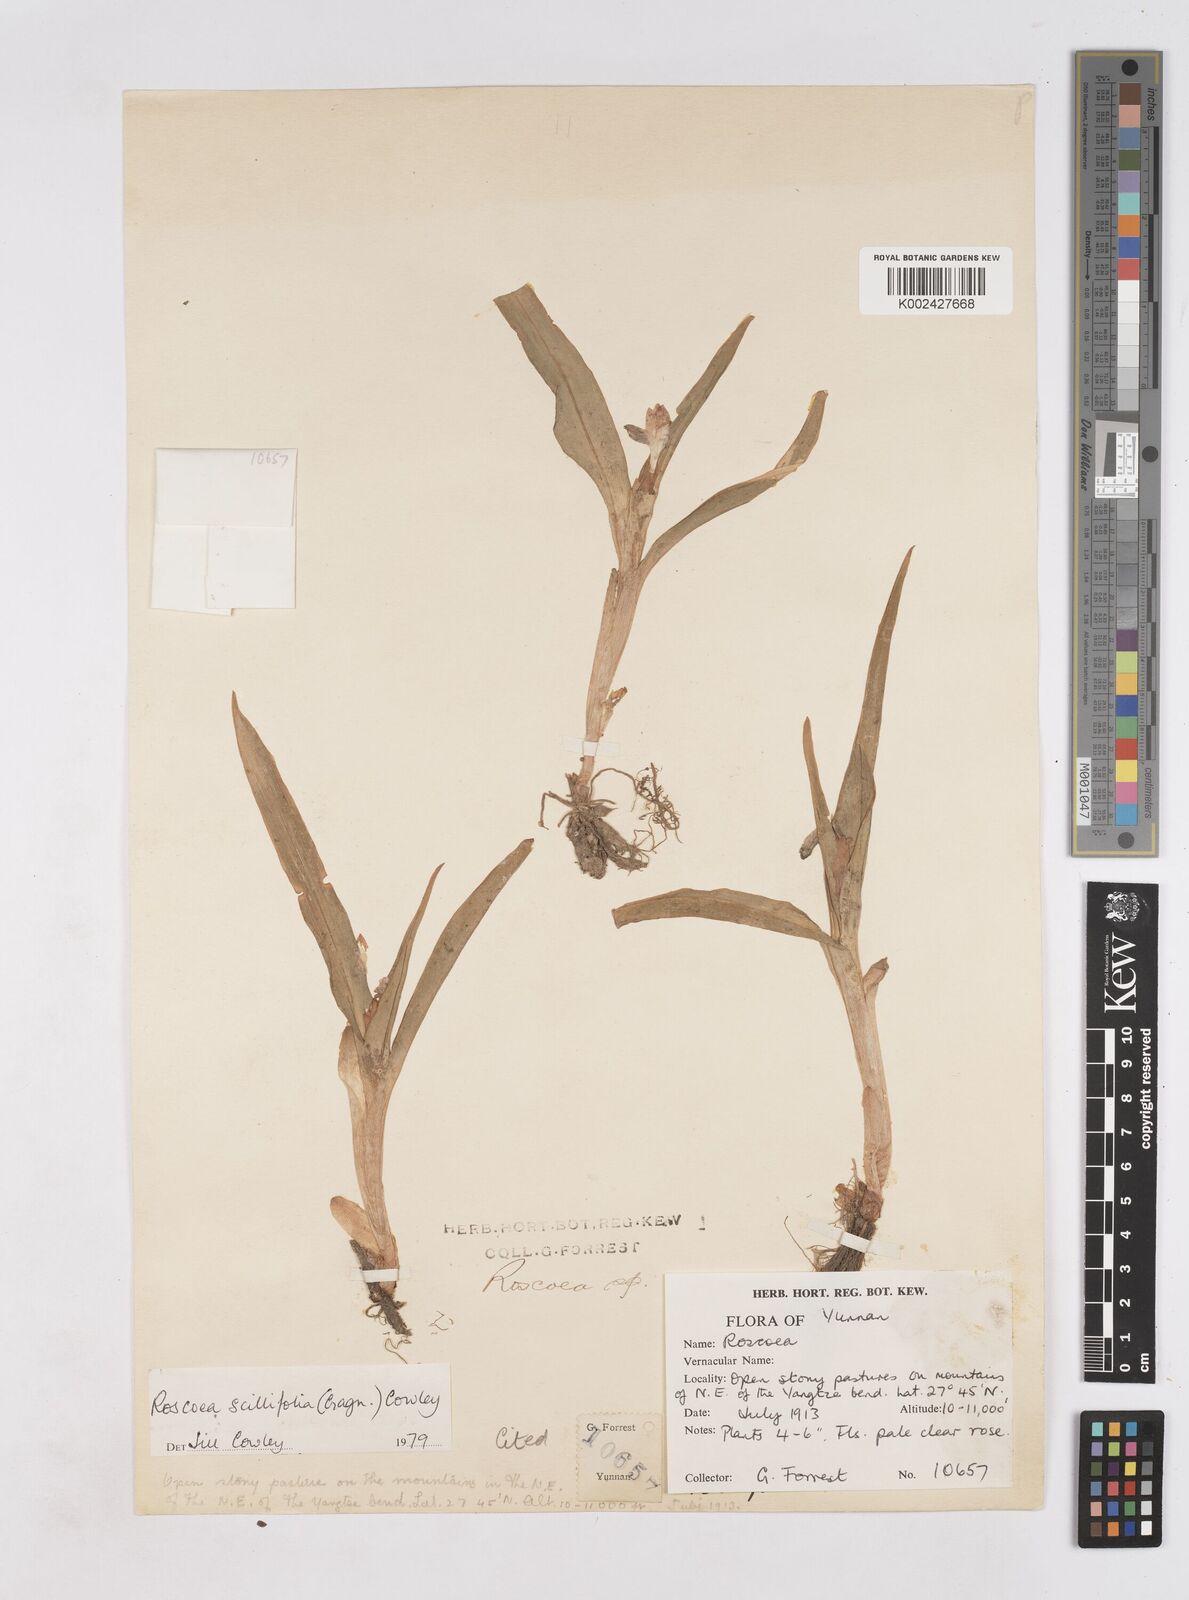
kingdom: Plantae
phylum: Tracheophyta
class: Liliopsida
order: Zingiberales
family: Zingiberaceae
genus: Roscoea
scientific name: Roscoea scillifolia
